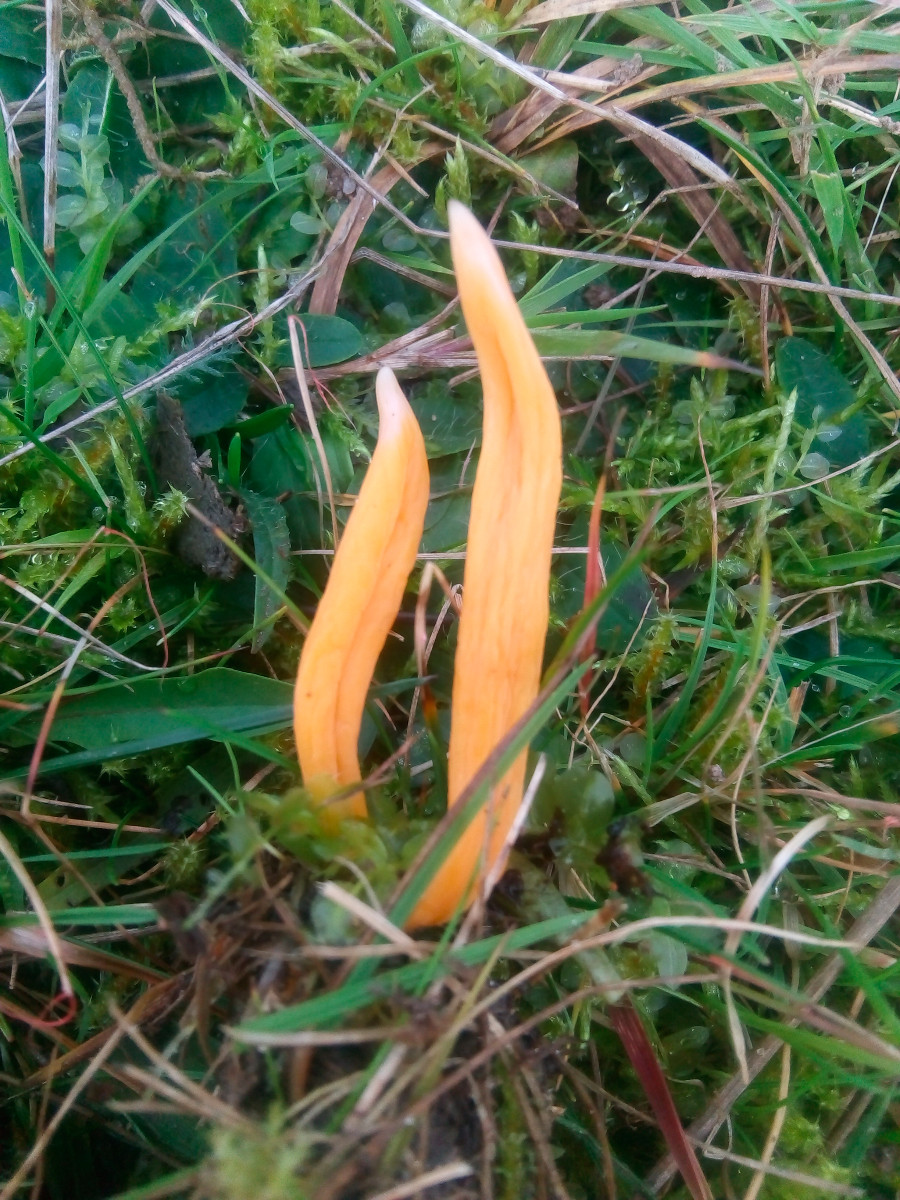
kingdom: Fungi
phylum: Basidiomycota
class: Agaricomycetes
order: Agaricales
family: Clavariaceae
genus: Clavulinopsis
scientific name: Clavulinopsis luteoalba
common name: abrikos-køllesvamp
